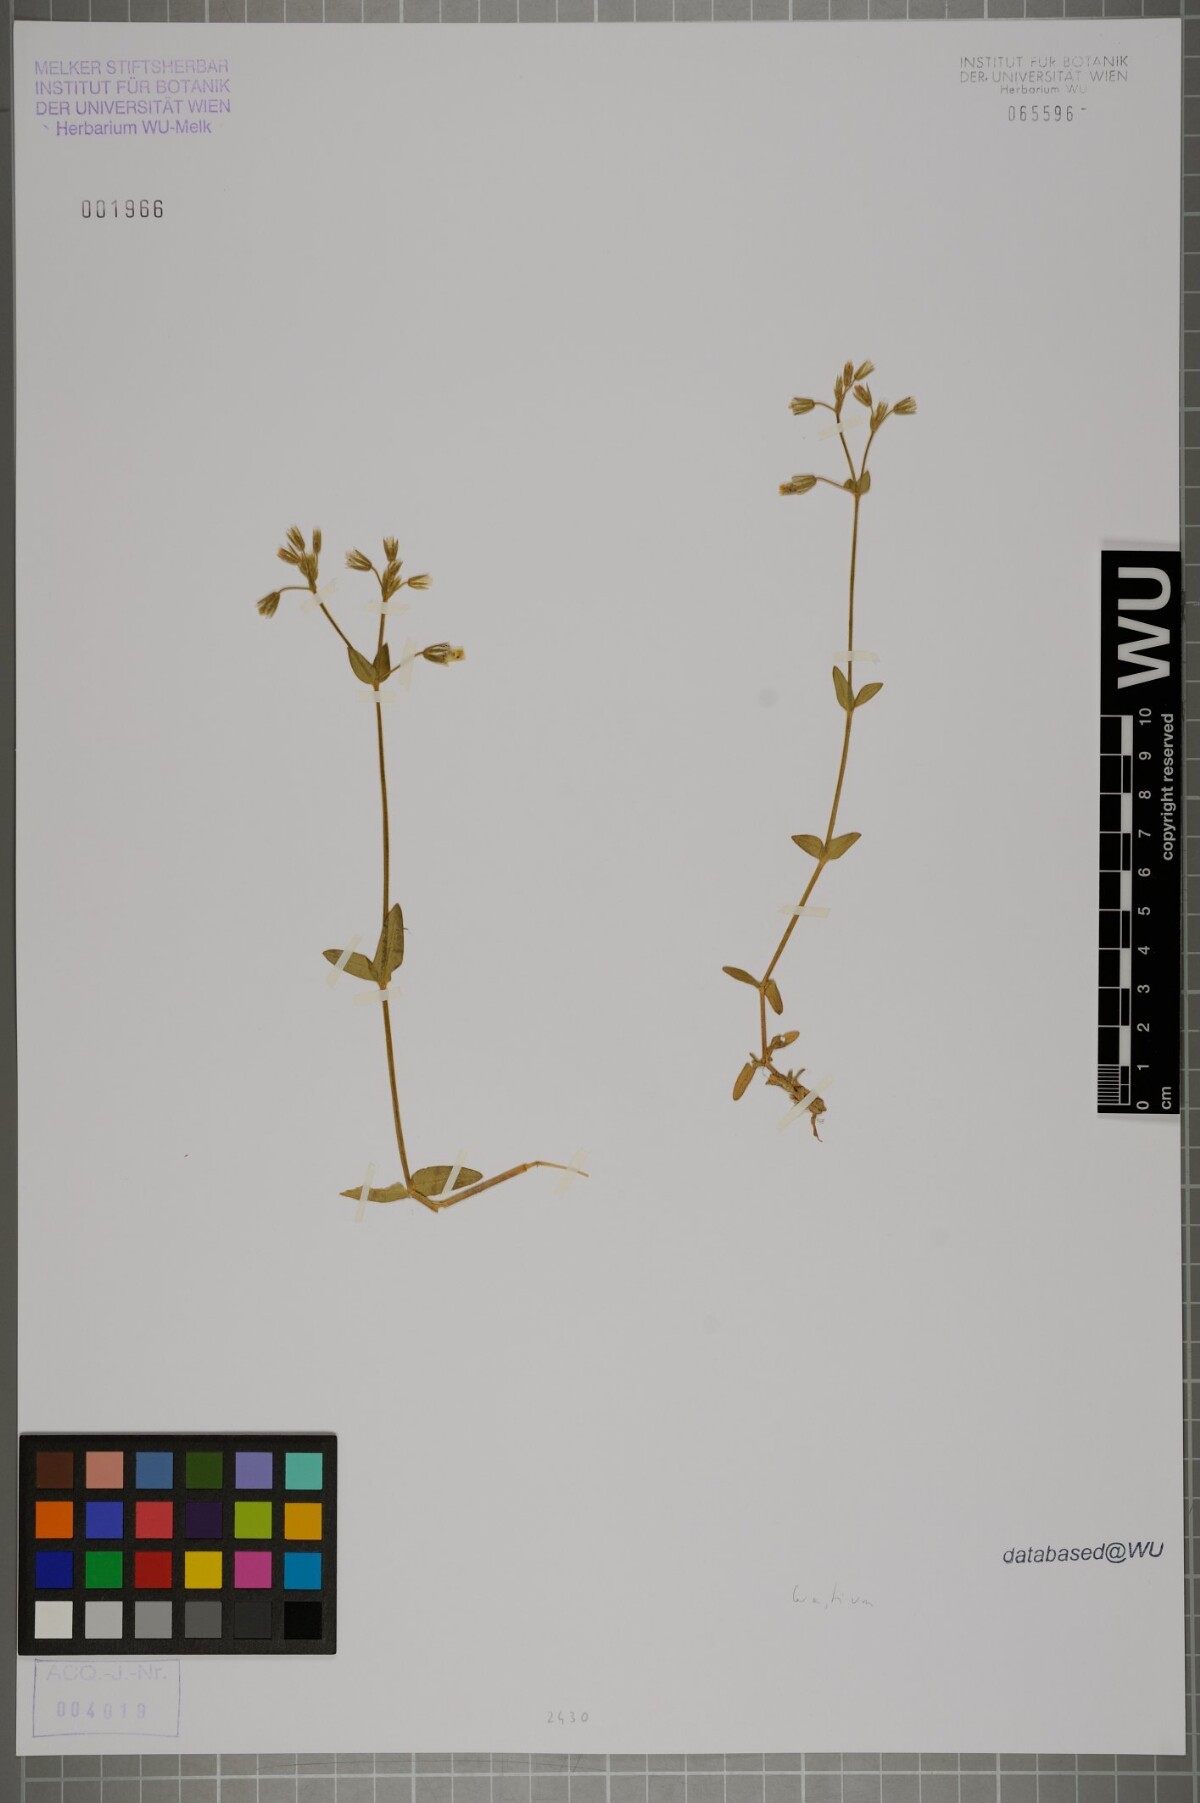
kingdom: Plantae
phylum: Tracheophyta
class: Magnoliopsida
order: Caryophyllales
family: Caryophyllaceae
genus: Cerastium
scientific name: Cerastium
